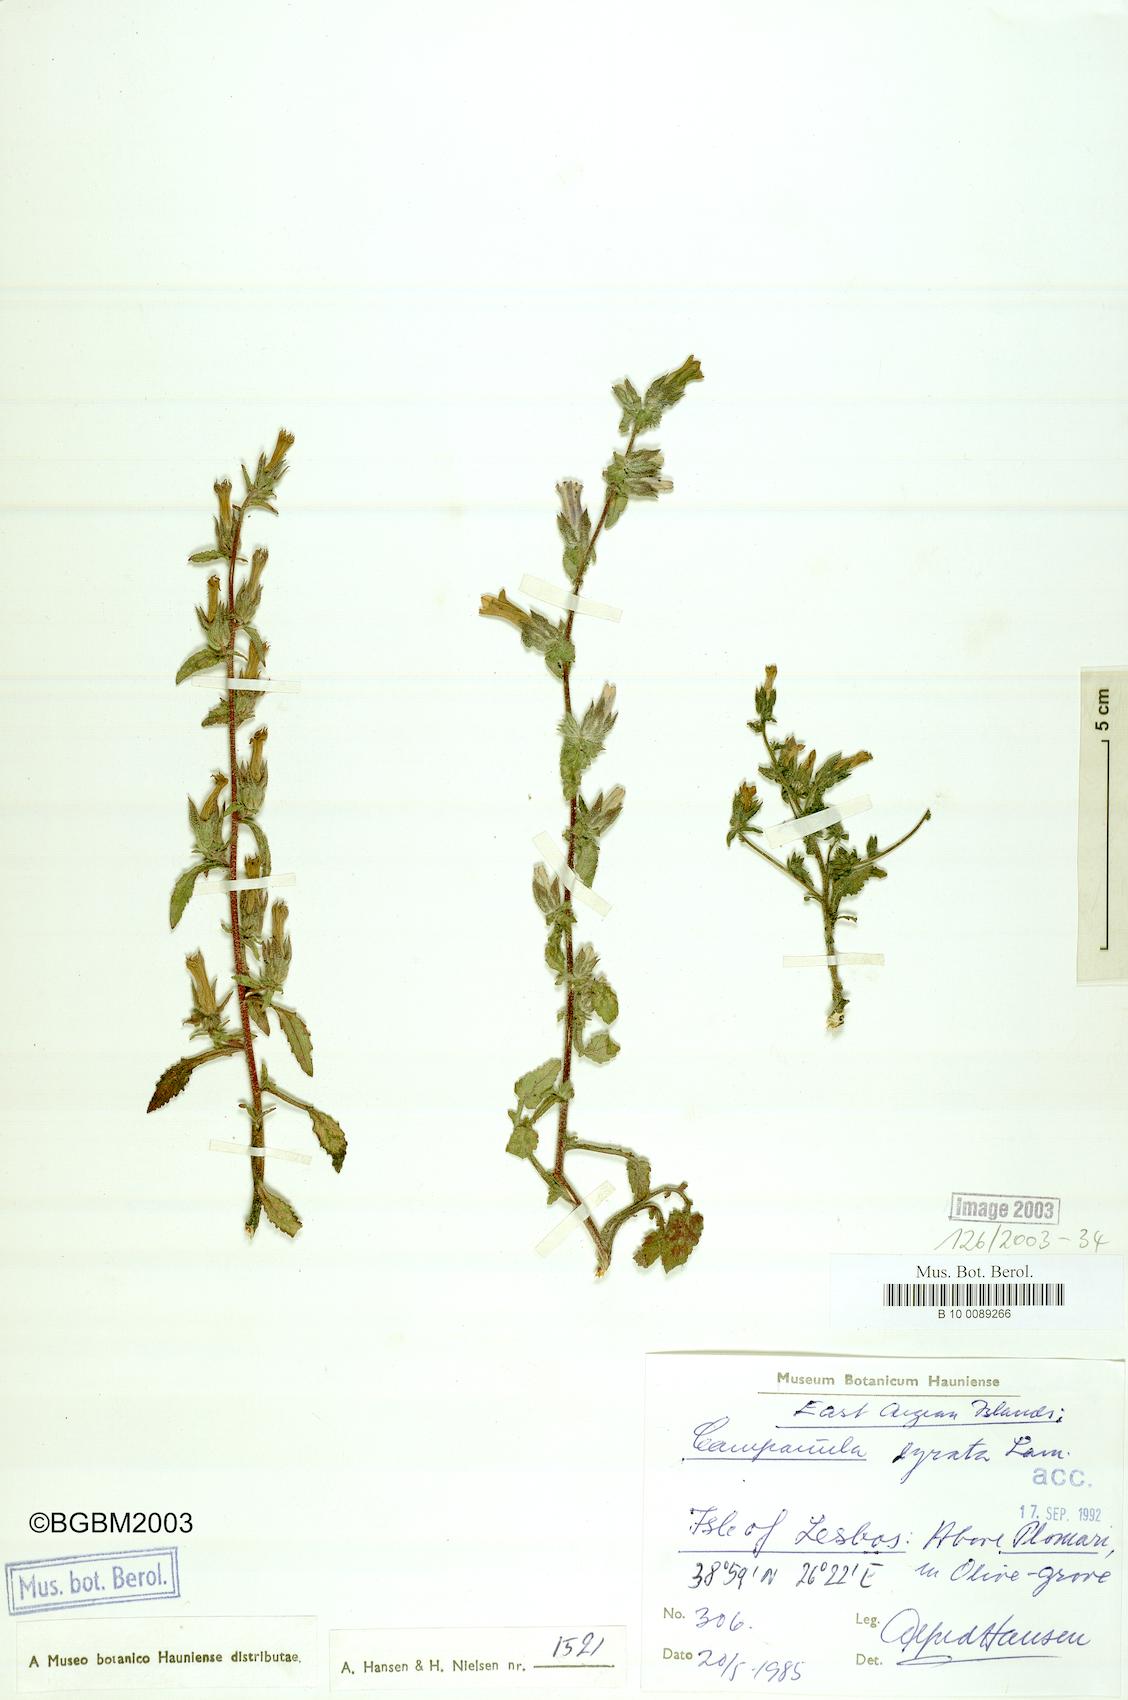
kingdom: Plantae
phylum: Tracheophyta
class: Magnoliopsida
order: Asterales
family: Campanulaceae
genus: Campanula
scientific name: Campanula lyrata
